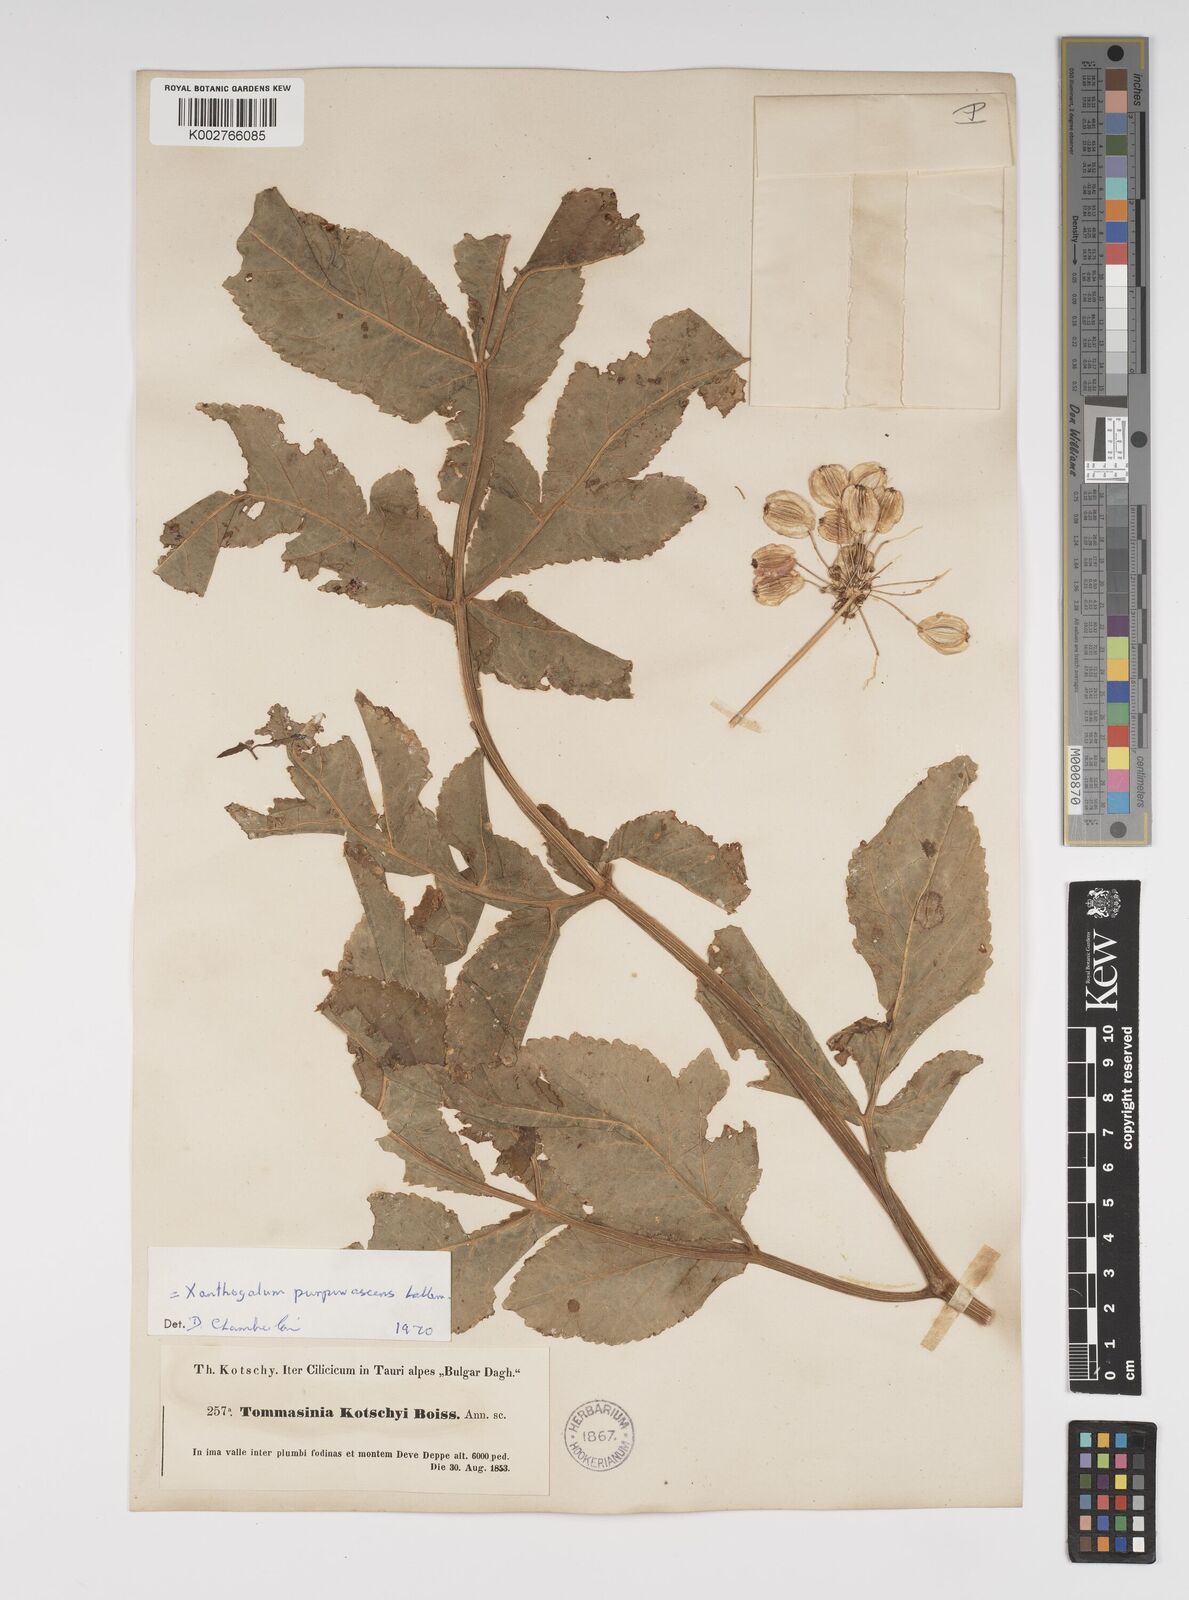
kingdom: Plantae
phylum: Tracheophyta
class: Magnoliopsida
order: Apiales
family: Apiaceae
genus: Xanthogalum
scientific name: Xanthogalum purpurascens
